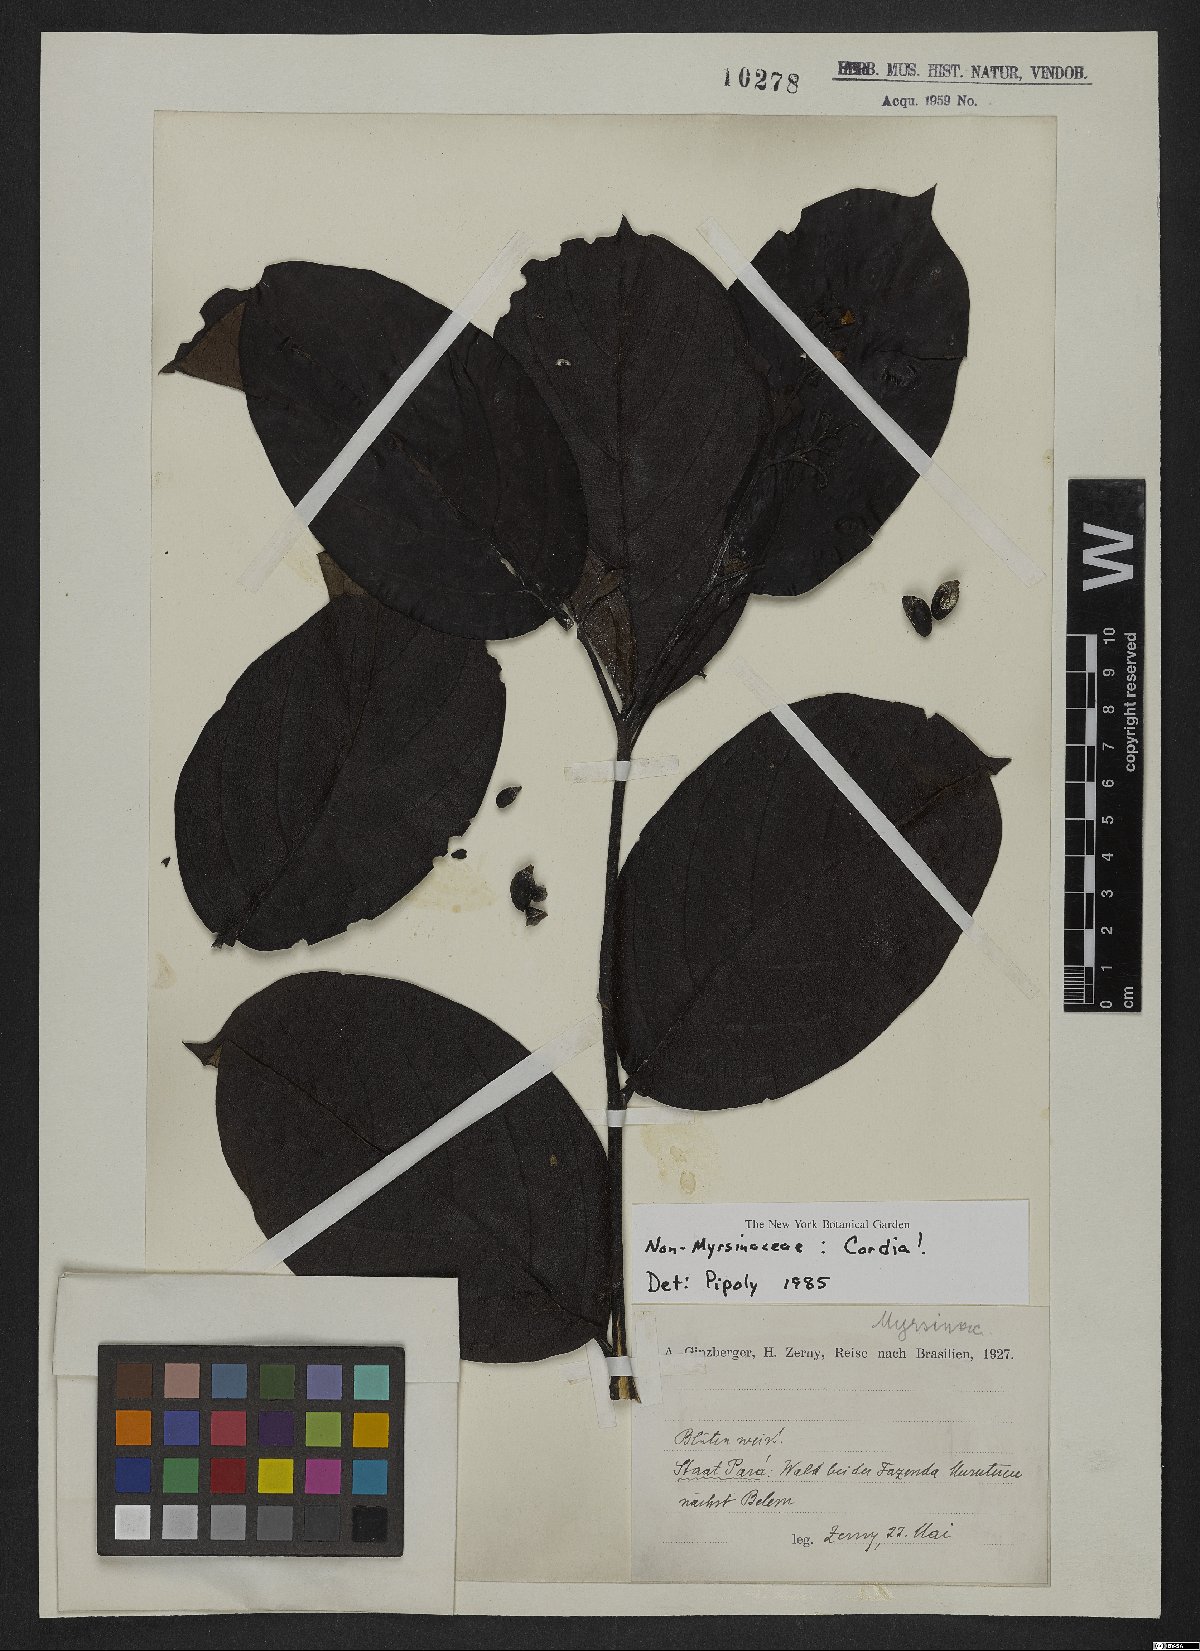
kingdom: Plantae
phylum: Tracheophyta
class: Magnoliopsida
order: Boraginales
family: Cordiaceae
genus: Cordia
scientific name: Cordia
